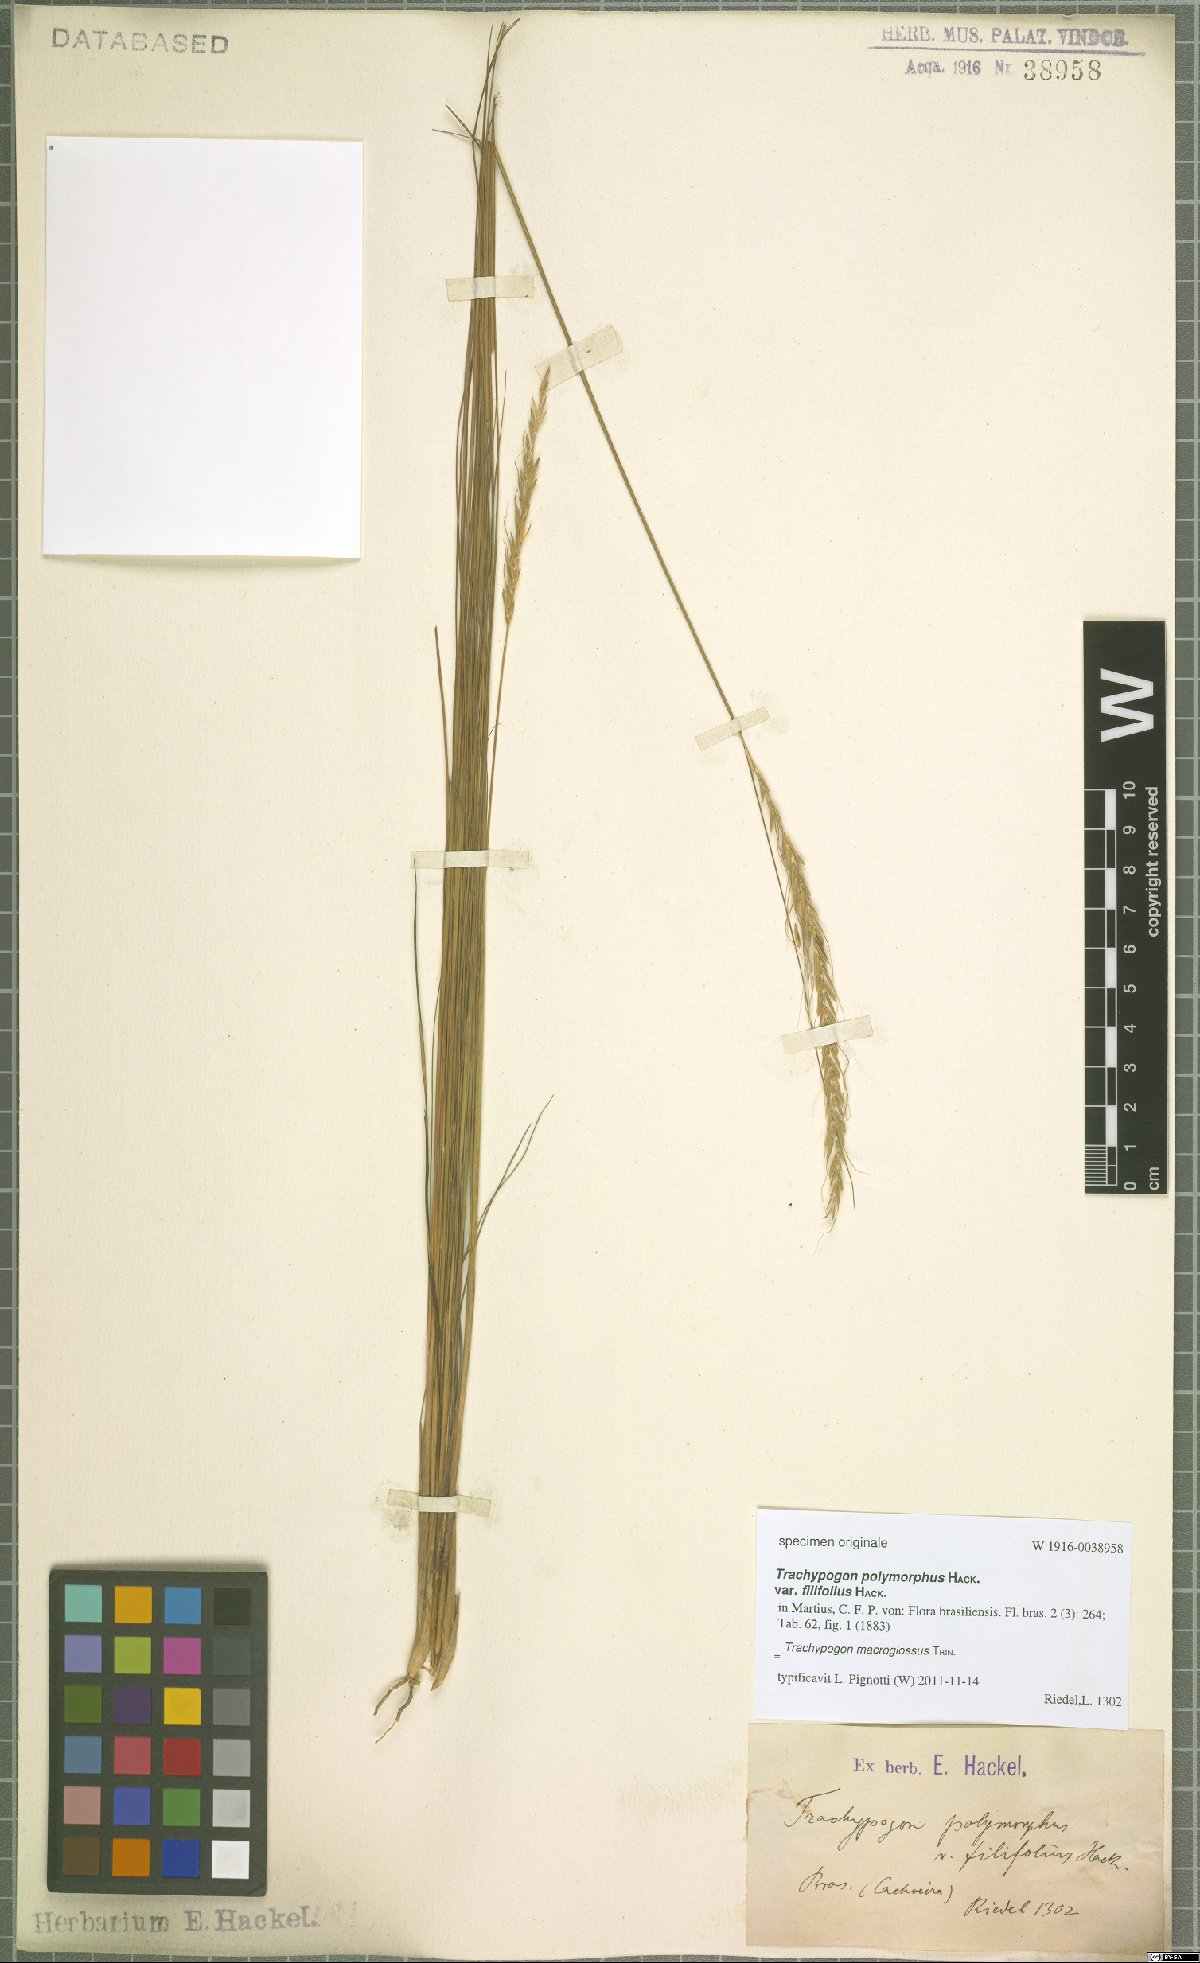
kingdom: Plantae
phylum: Tracheophyta
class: Liliopsida
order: Poales
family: Poaceae
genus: Trachypogon
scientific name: Trachypogon macroglossus
